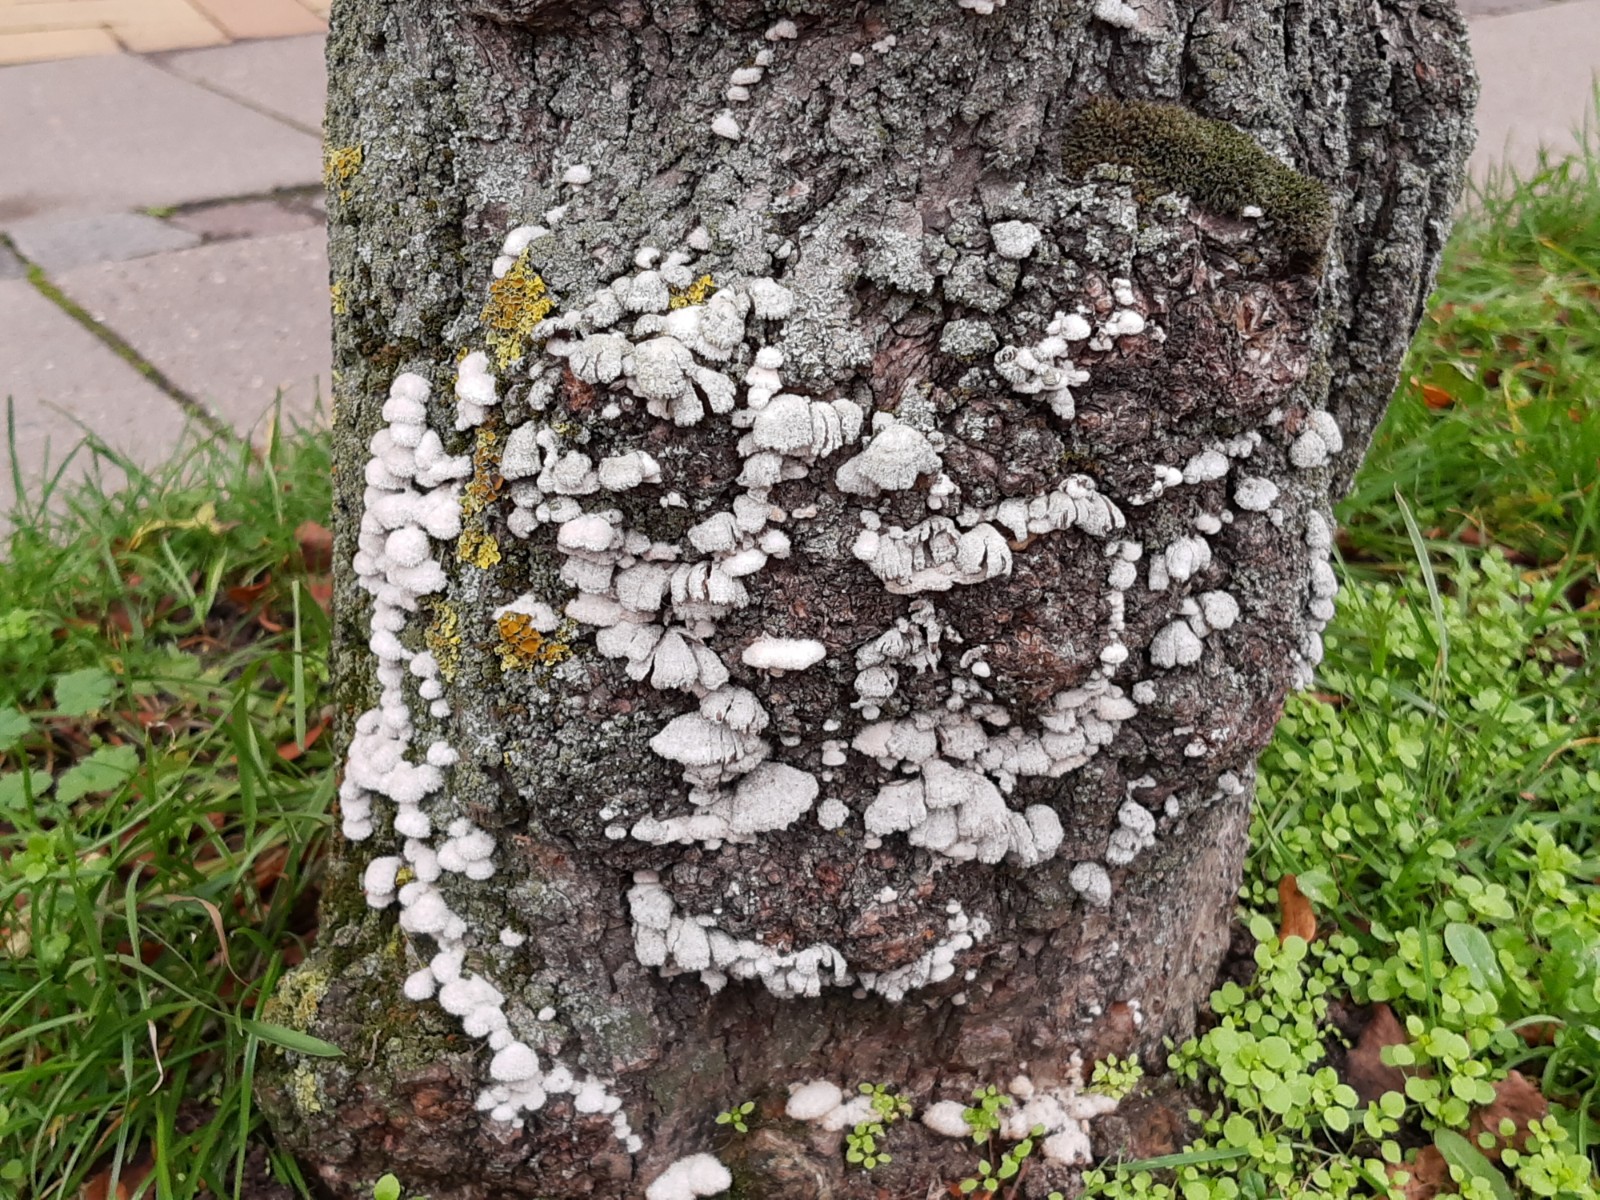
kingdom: Fungi
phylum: Basidiomycota
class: Agaricomycetes
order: Agaricales
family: Schizophyllaceae
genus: Schizophyllum
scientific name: Schizophyllum commune
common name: kløvblad
